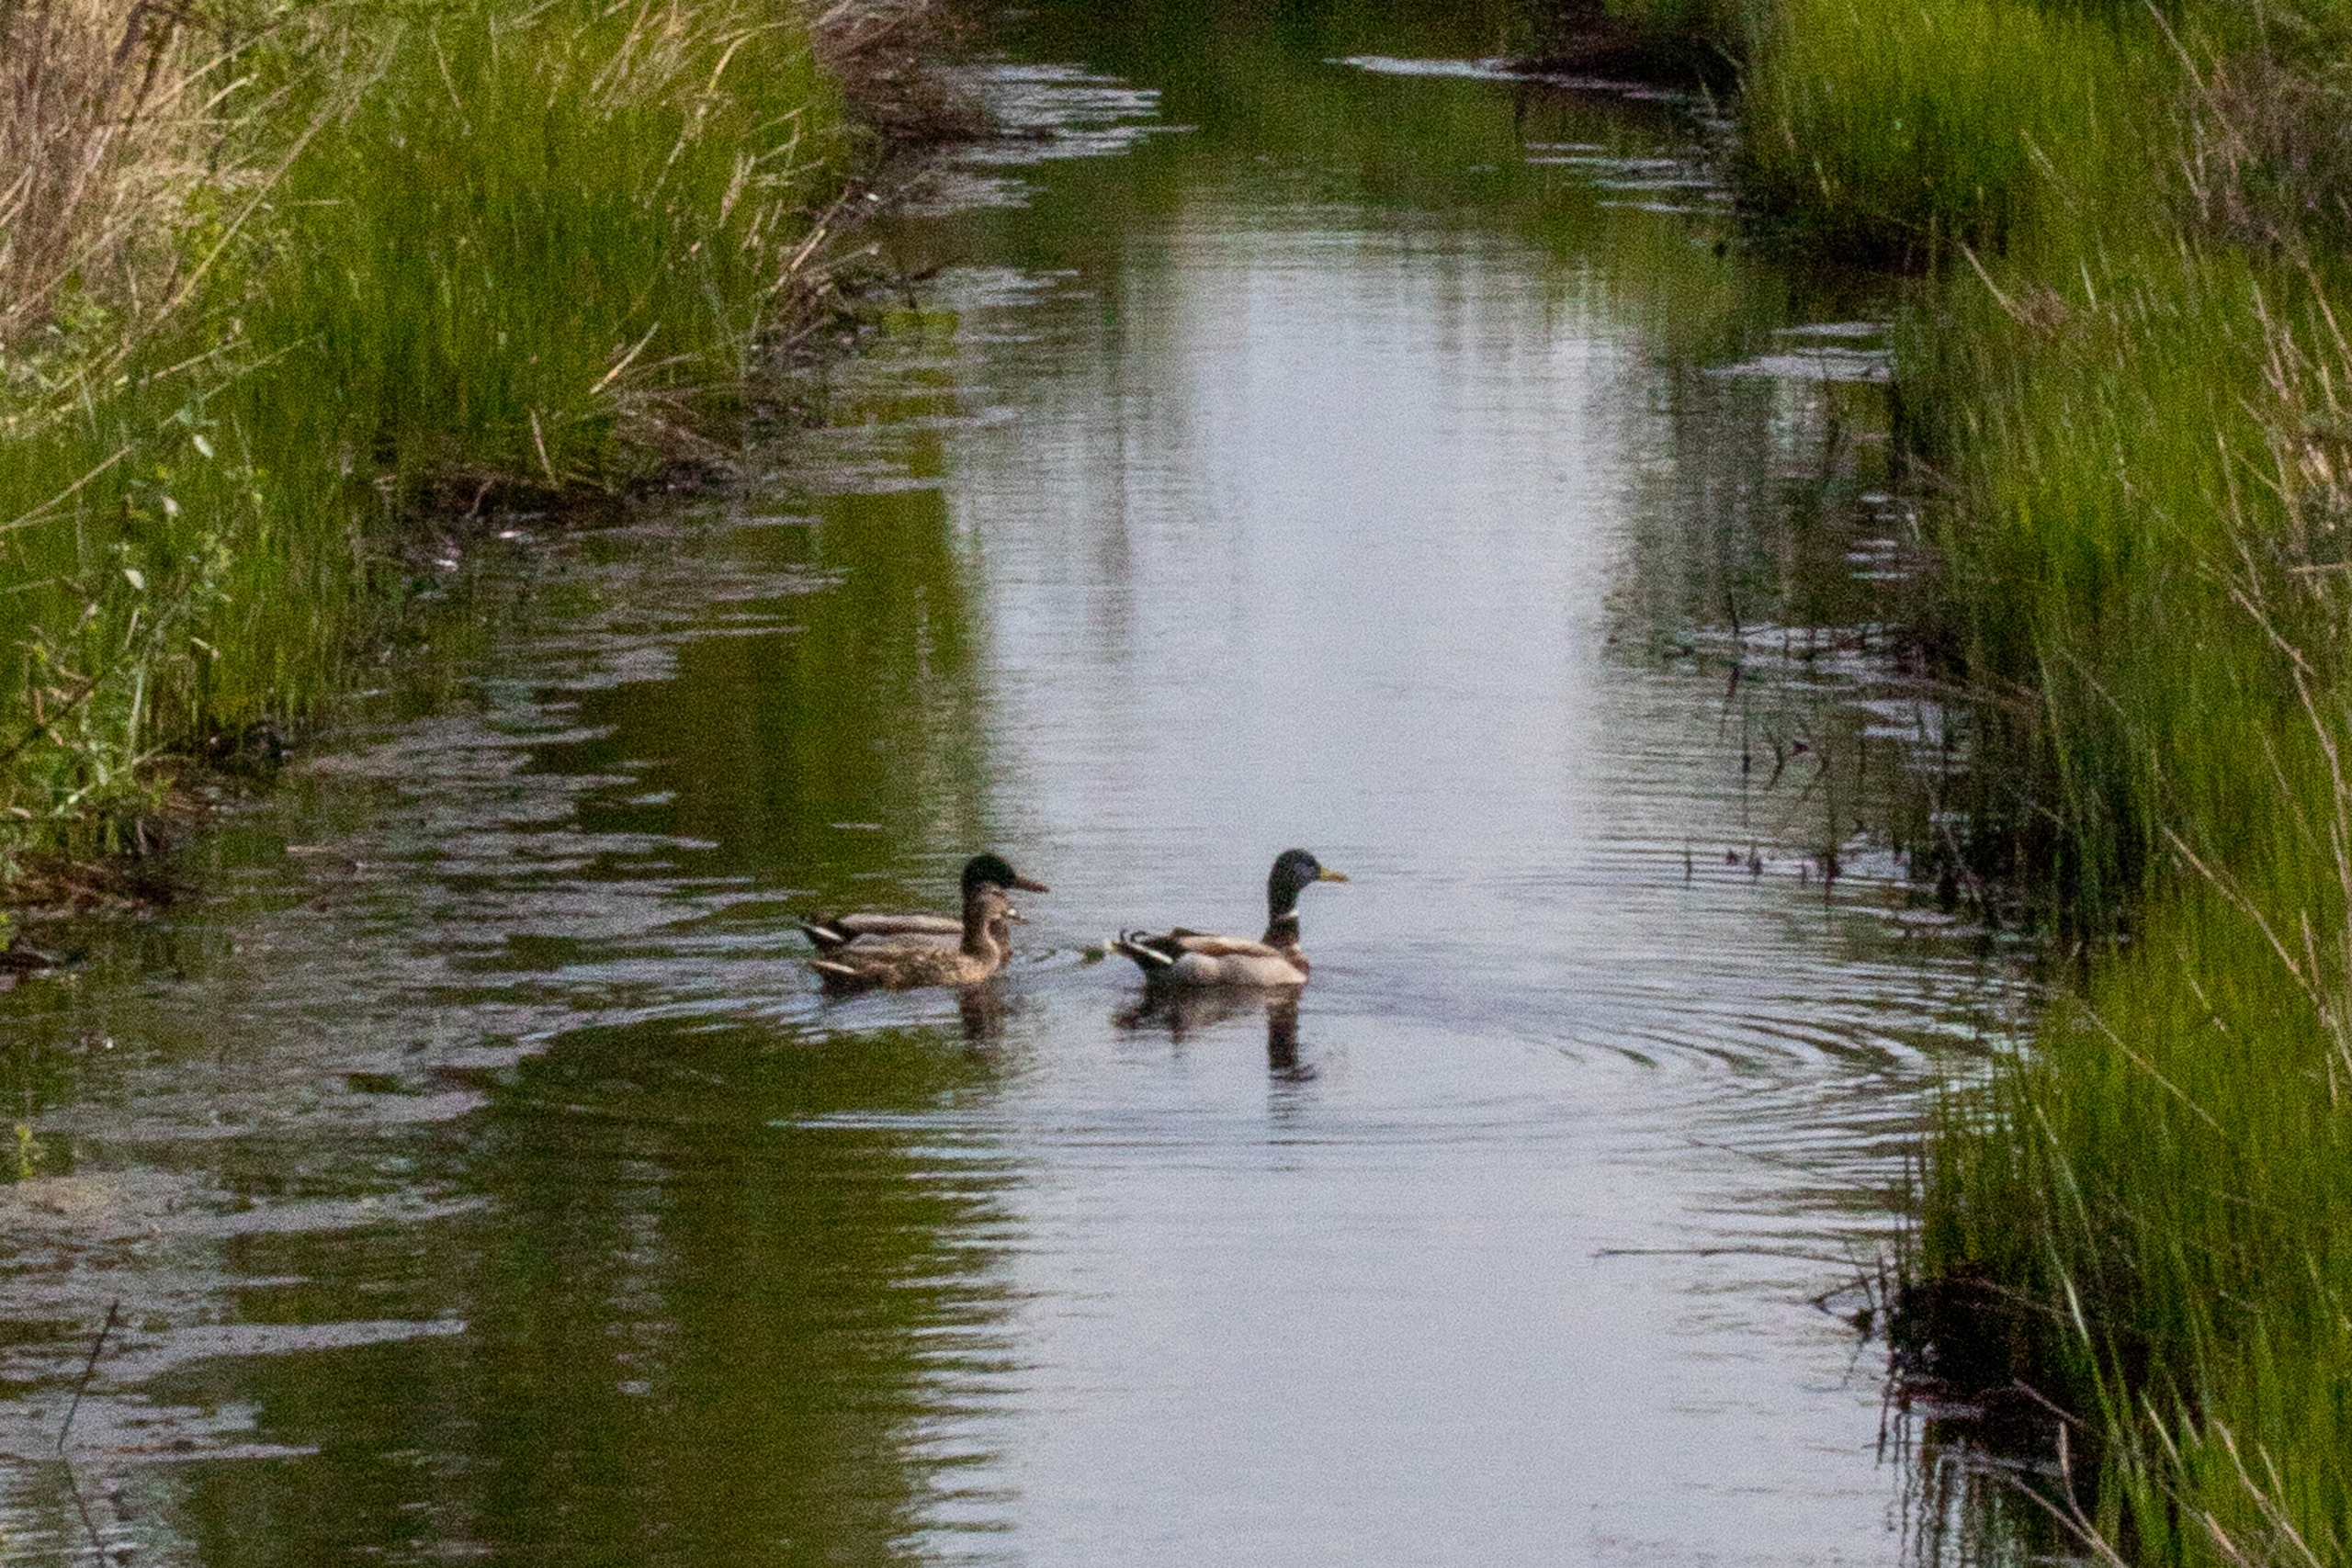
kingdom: Animalia
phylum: Chordata
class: Aves
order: Anseriformes
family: Anatidae
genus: Anas
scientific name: Anas platyrhynchos
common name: Gråand
